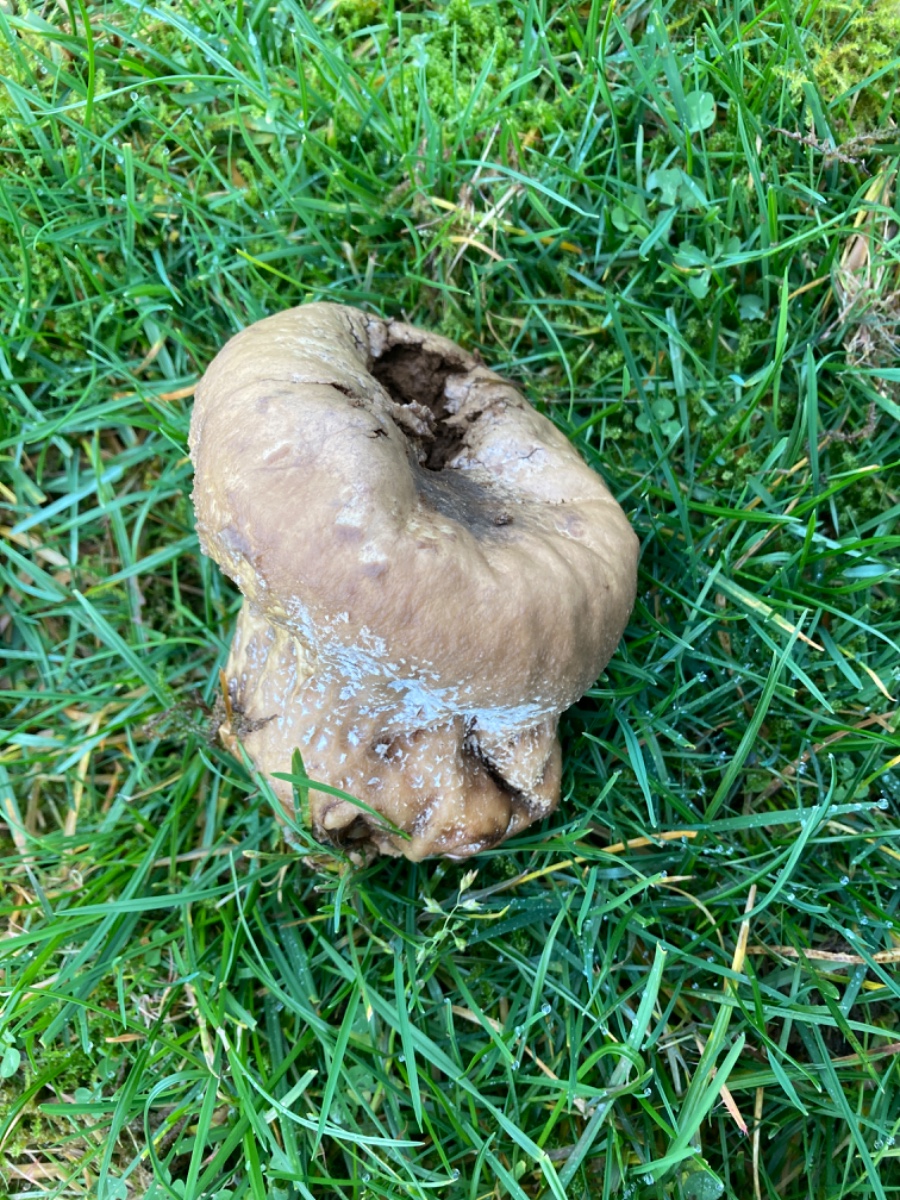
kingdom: Fungi
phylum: Basidiomycota
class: Agaricomycetes
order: Agaricales
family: Lycoperdaceae
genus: Bovistella
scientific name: Bovistella utriformis
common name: skællet støvbold
